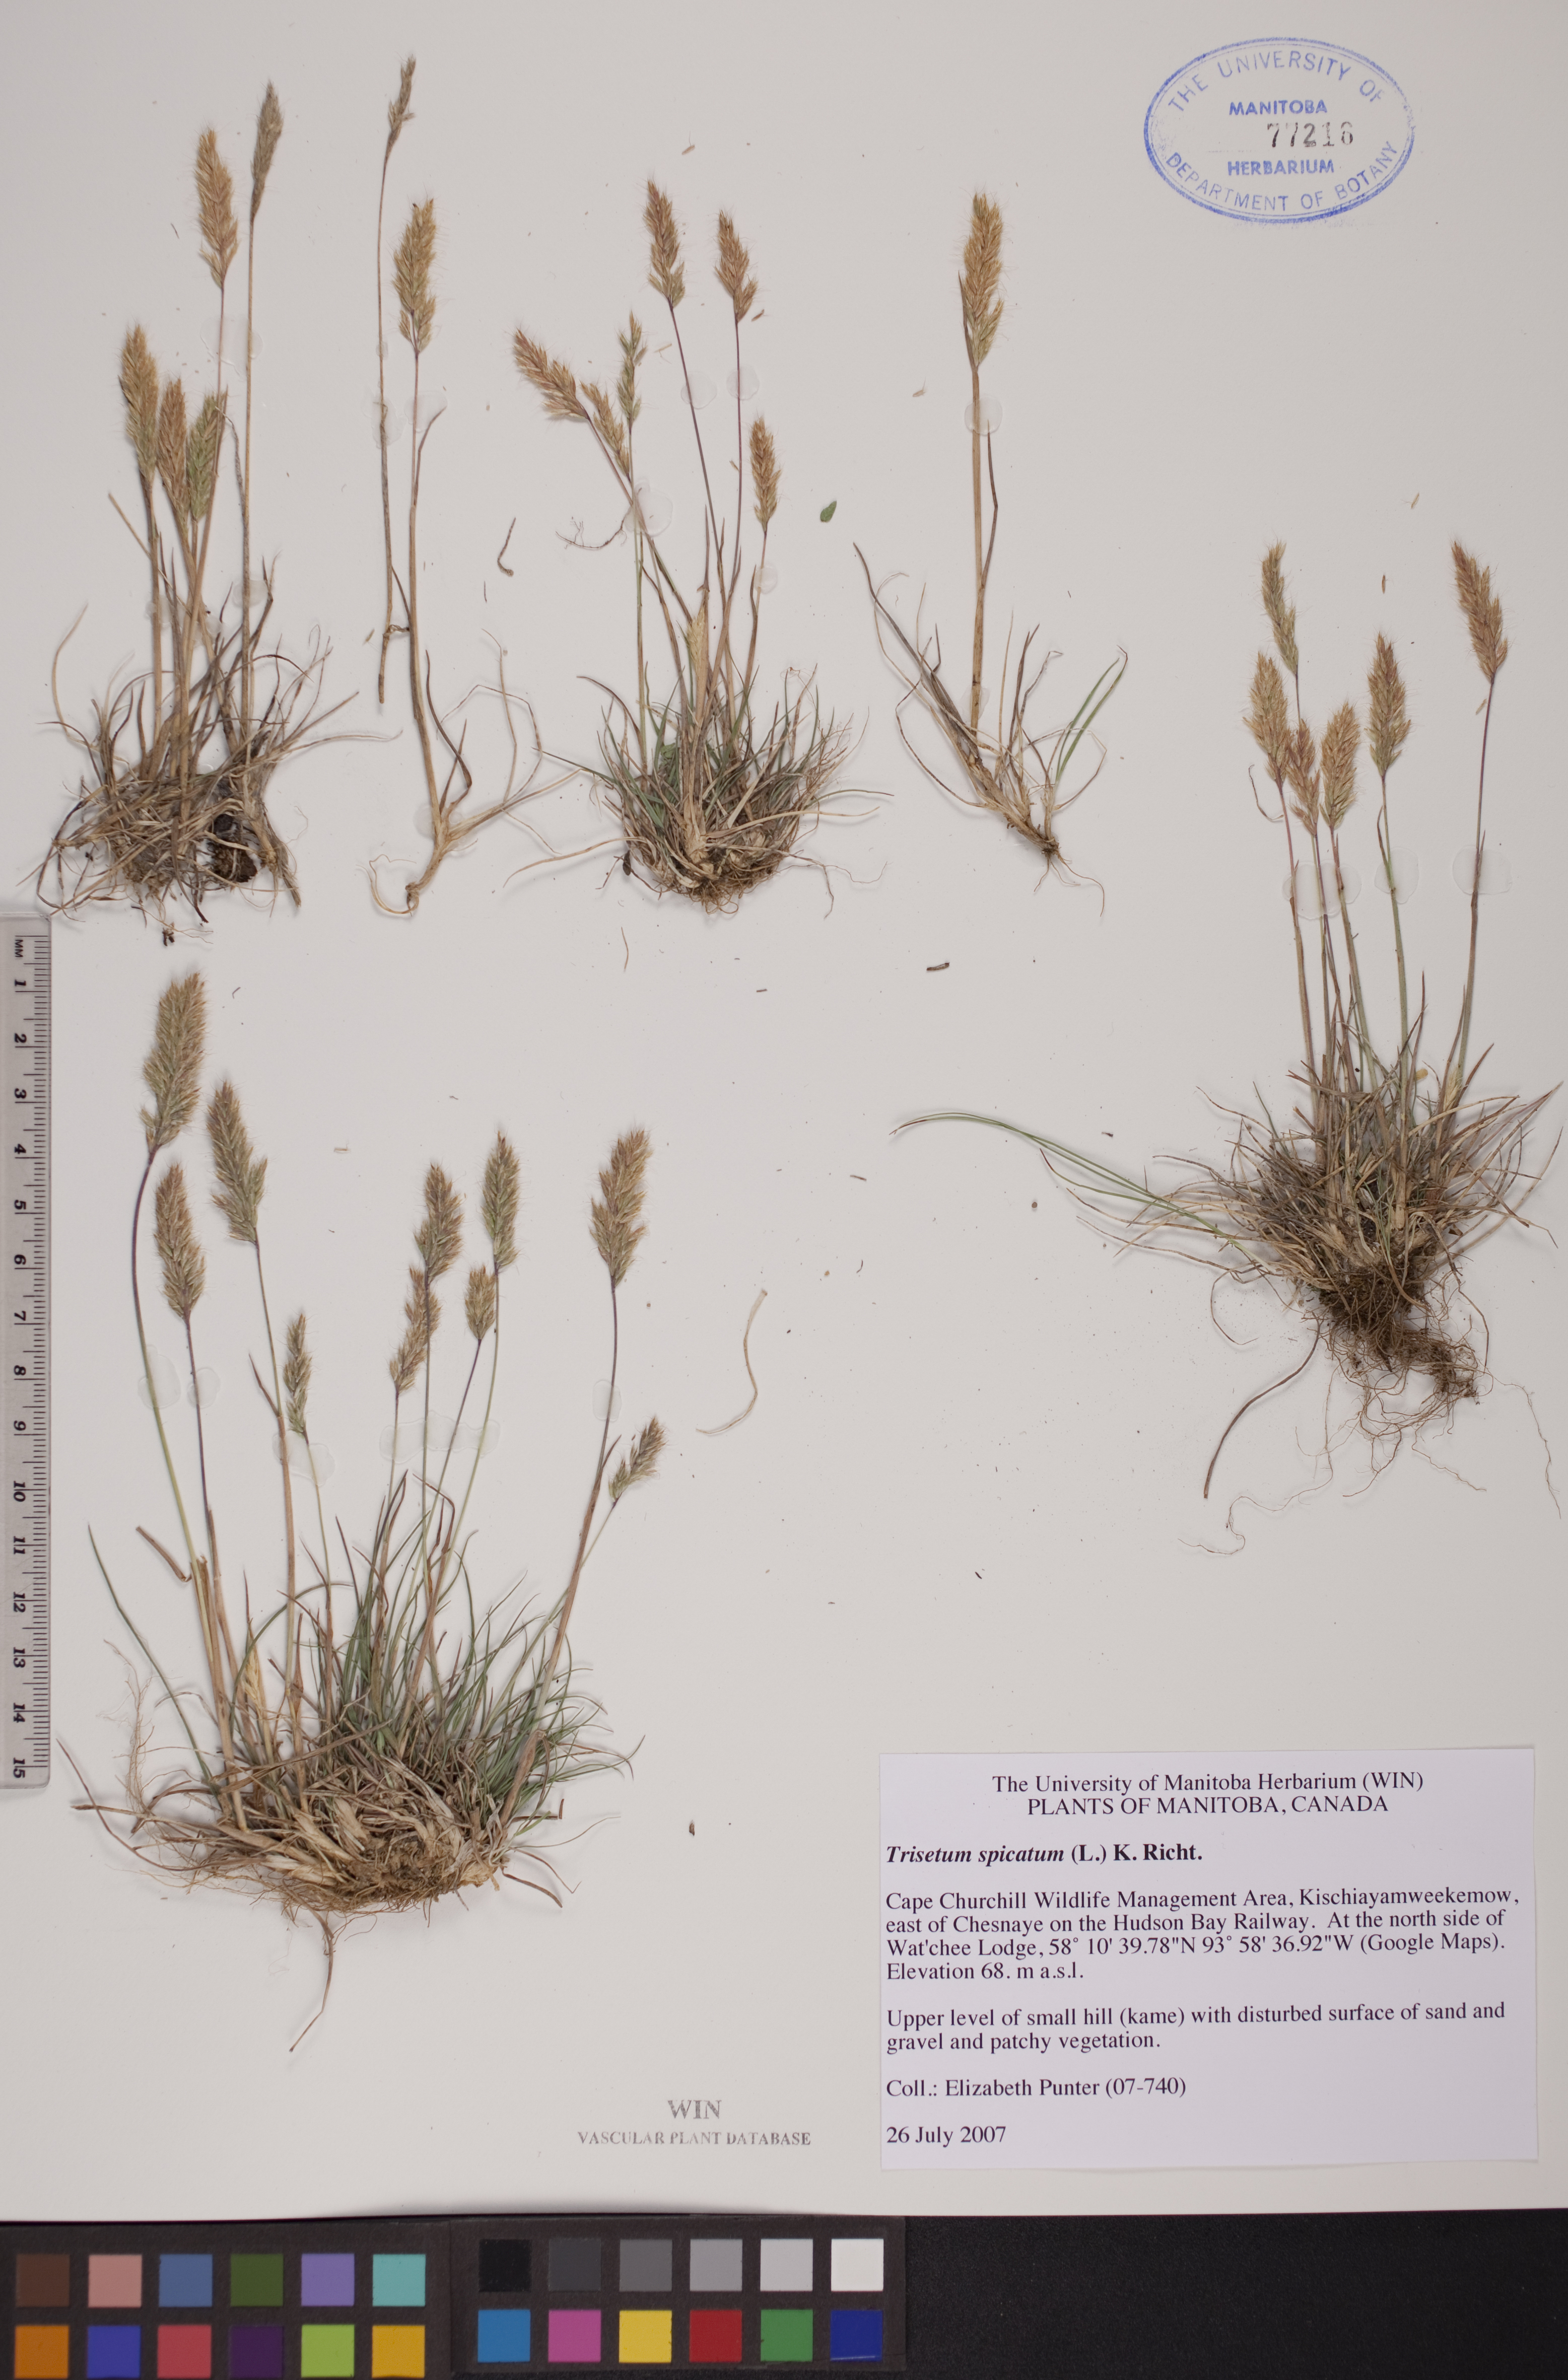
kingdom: Plantae
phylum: Tracheophyta
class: Liliopsida
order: Poales
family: Poaceae
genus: Koeleria
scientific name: Koeleria spicata
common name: Mountain trisetum
